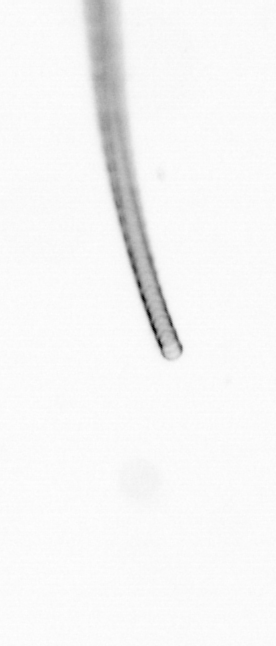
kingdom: Chromista
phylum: Ochrophyta
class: Bacillariophyceae
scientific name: Bacillariophyceae
